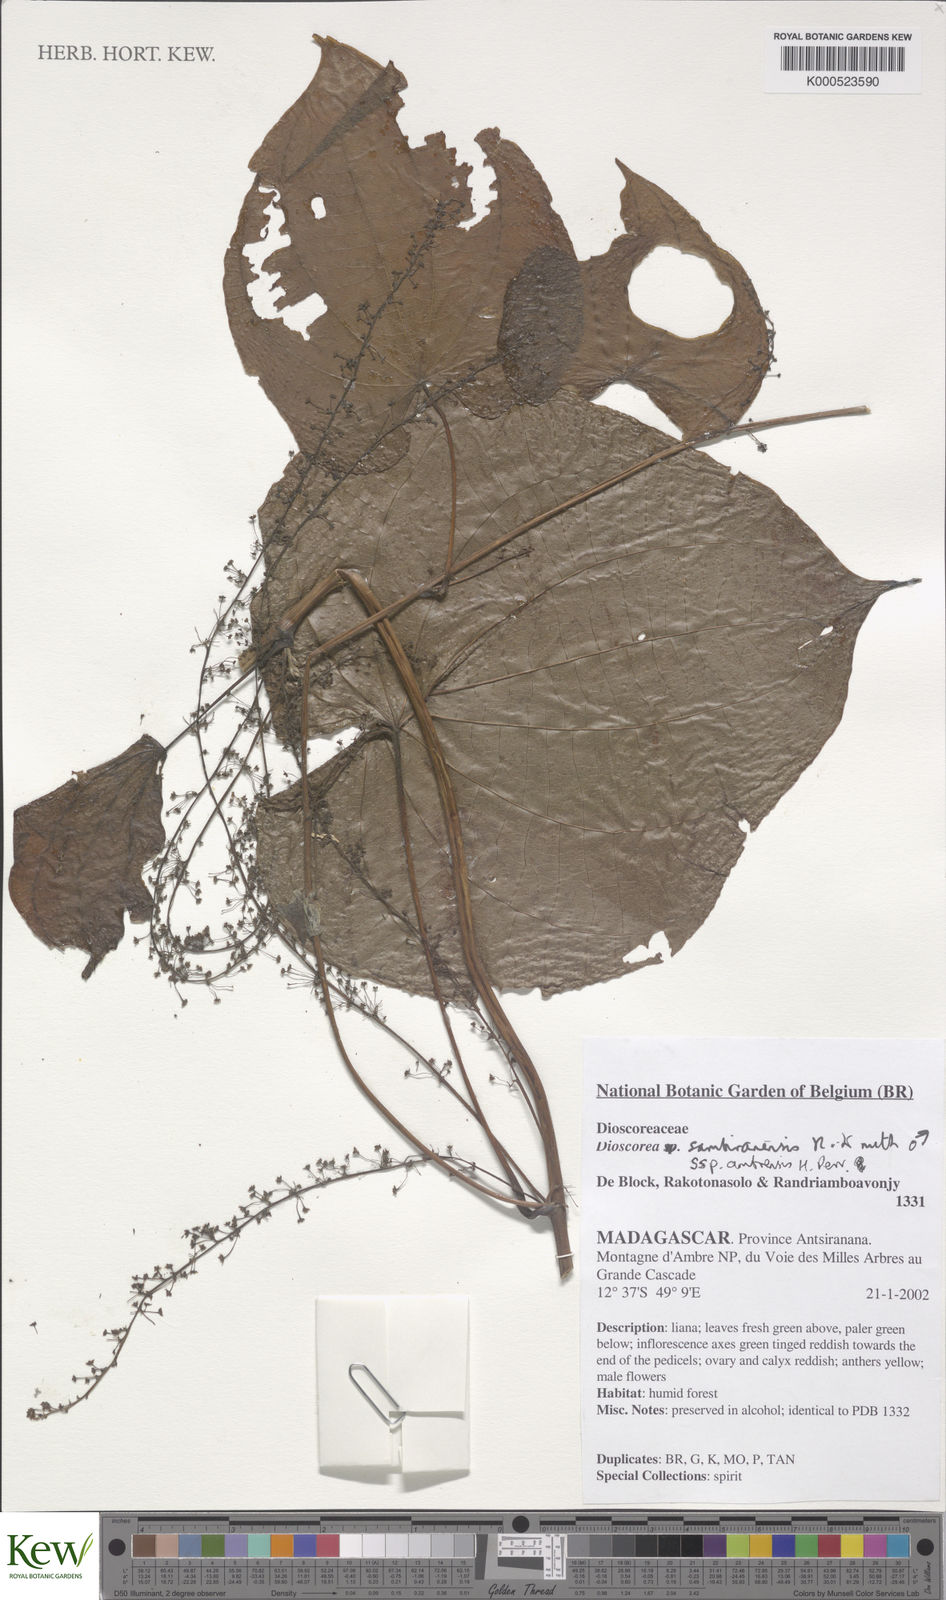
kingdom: Plantae
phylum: Tracheophyta
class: Liliopsida
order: Dioscoreales
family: Dioscoreaceae
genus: Dioscorea
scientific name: Dioscorea sambiranensis
